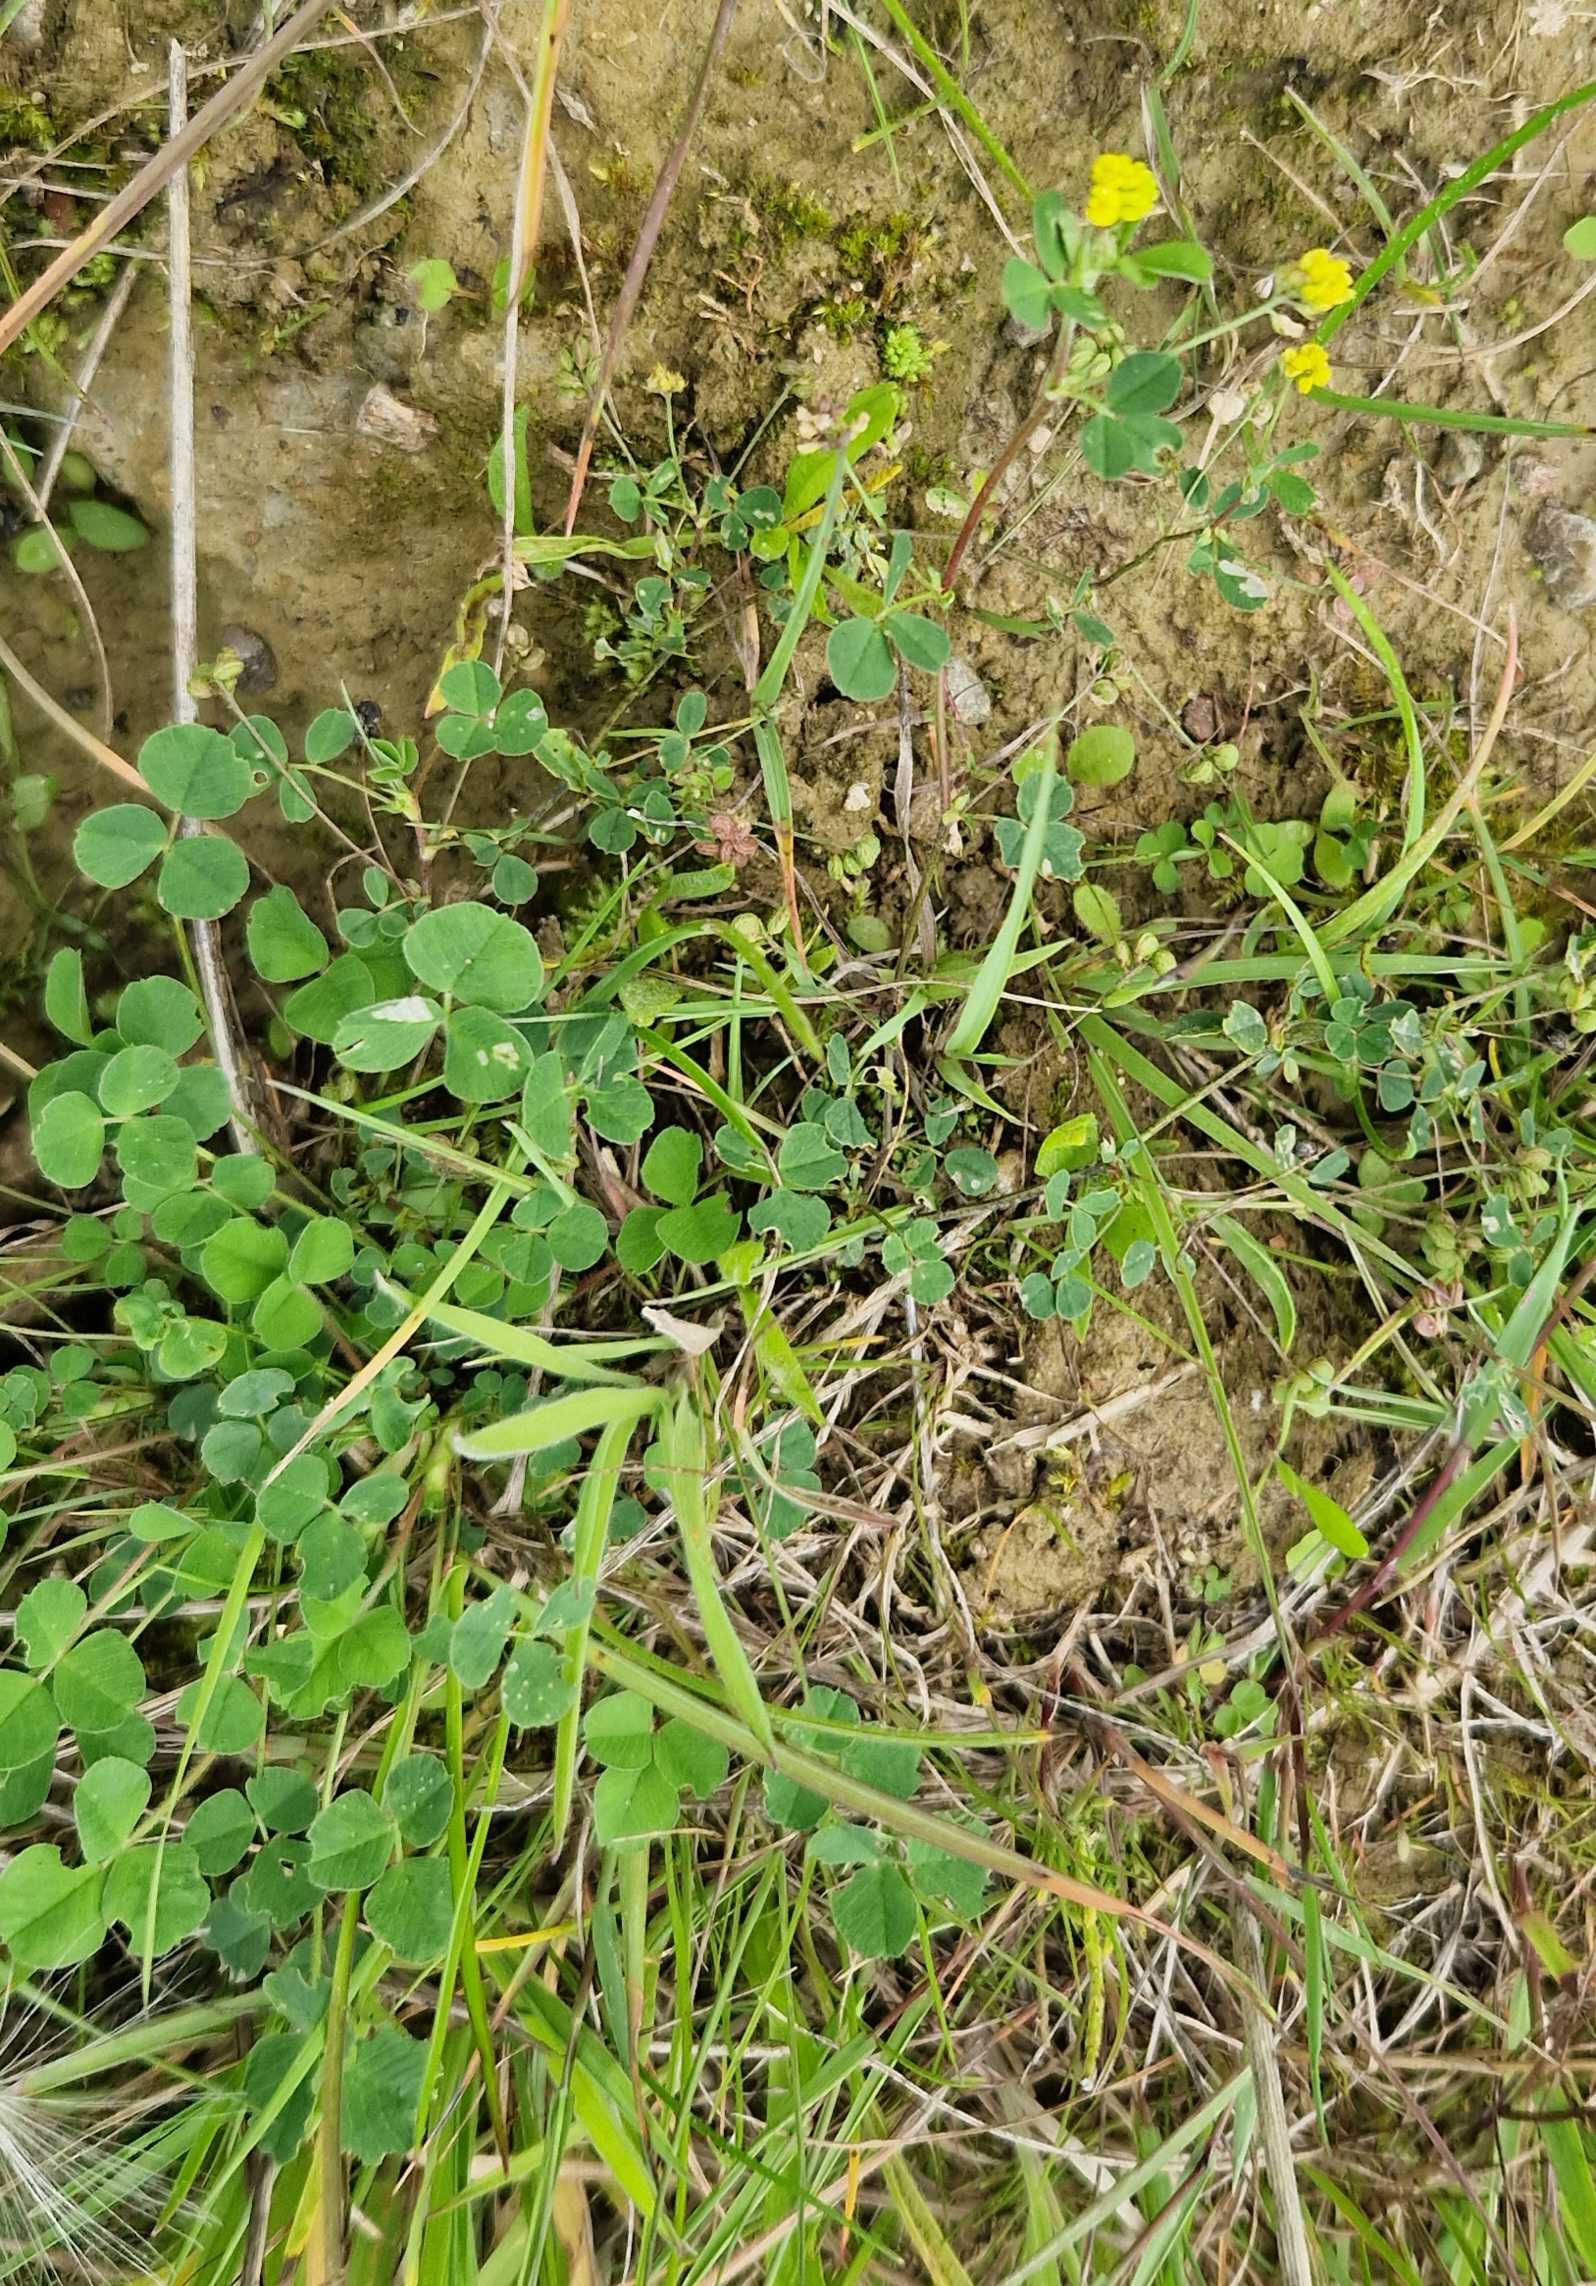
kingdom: Plantae
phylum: Tracheophyta
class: Magnoliopsida
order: Fabales
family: Fabaceae
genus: Medicago
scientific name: Medicago lupulina
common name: Humle-sneglebælg
